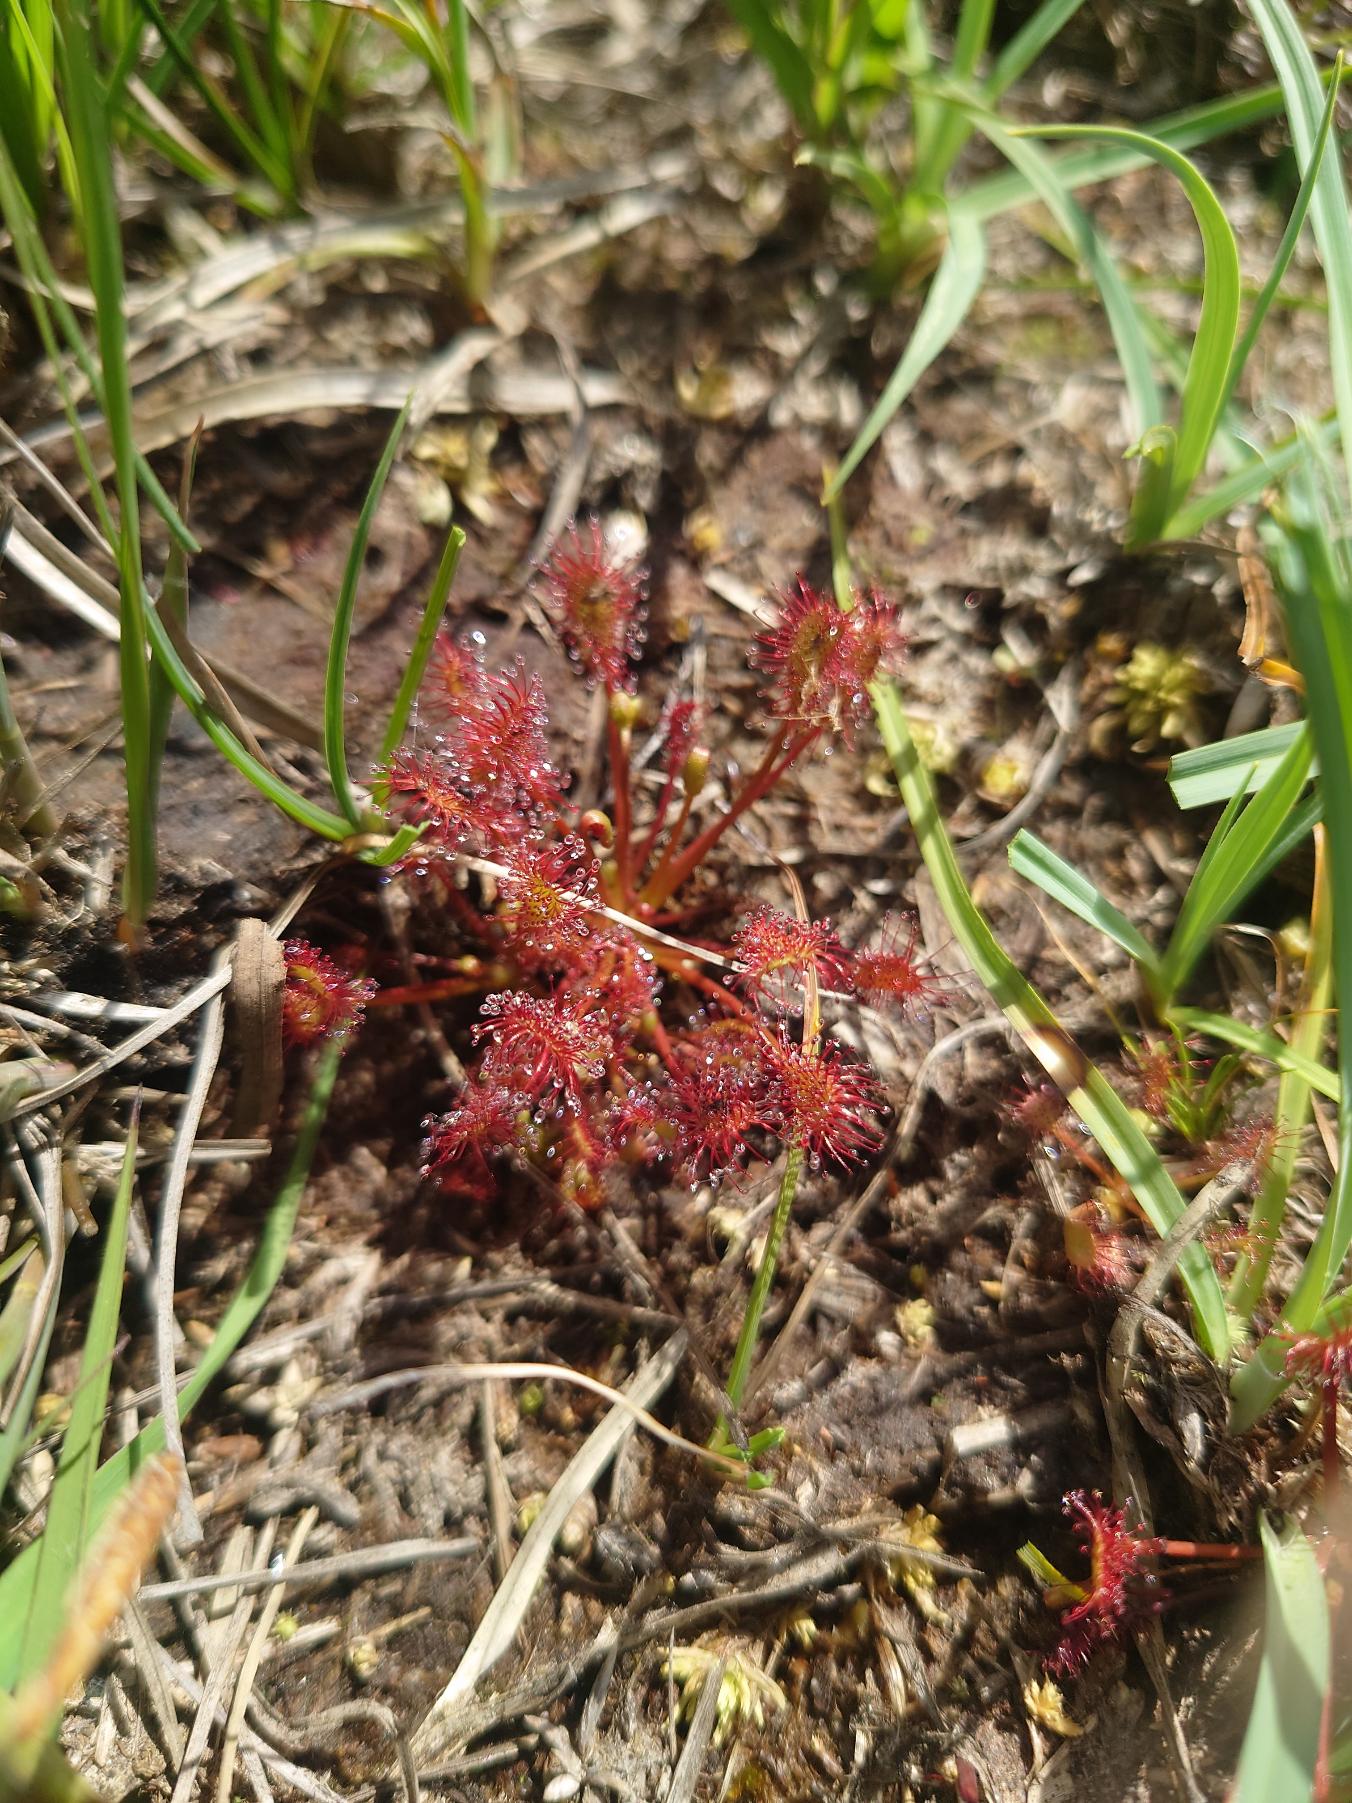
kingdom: Plantae
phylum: Tracheophyta
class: Magnoliopsida
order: Caryophyllales
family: Droseraceae
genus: Drosera
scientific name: Drosera intermedia
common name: Liden soldug
